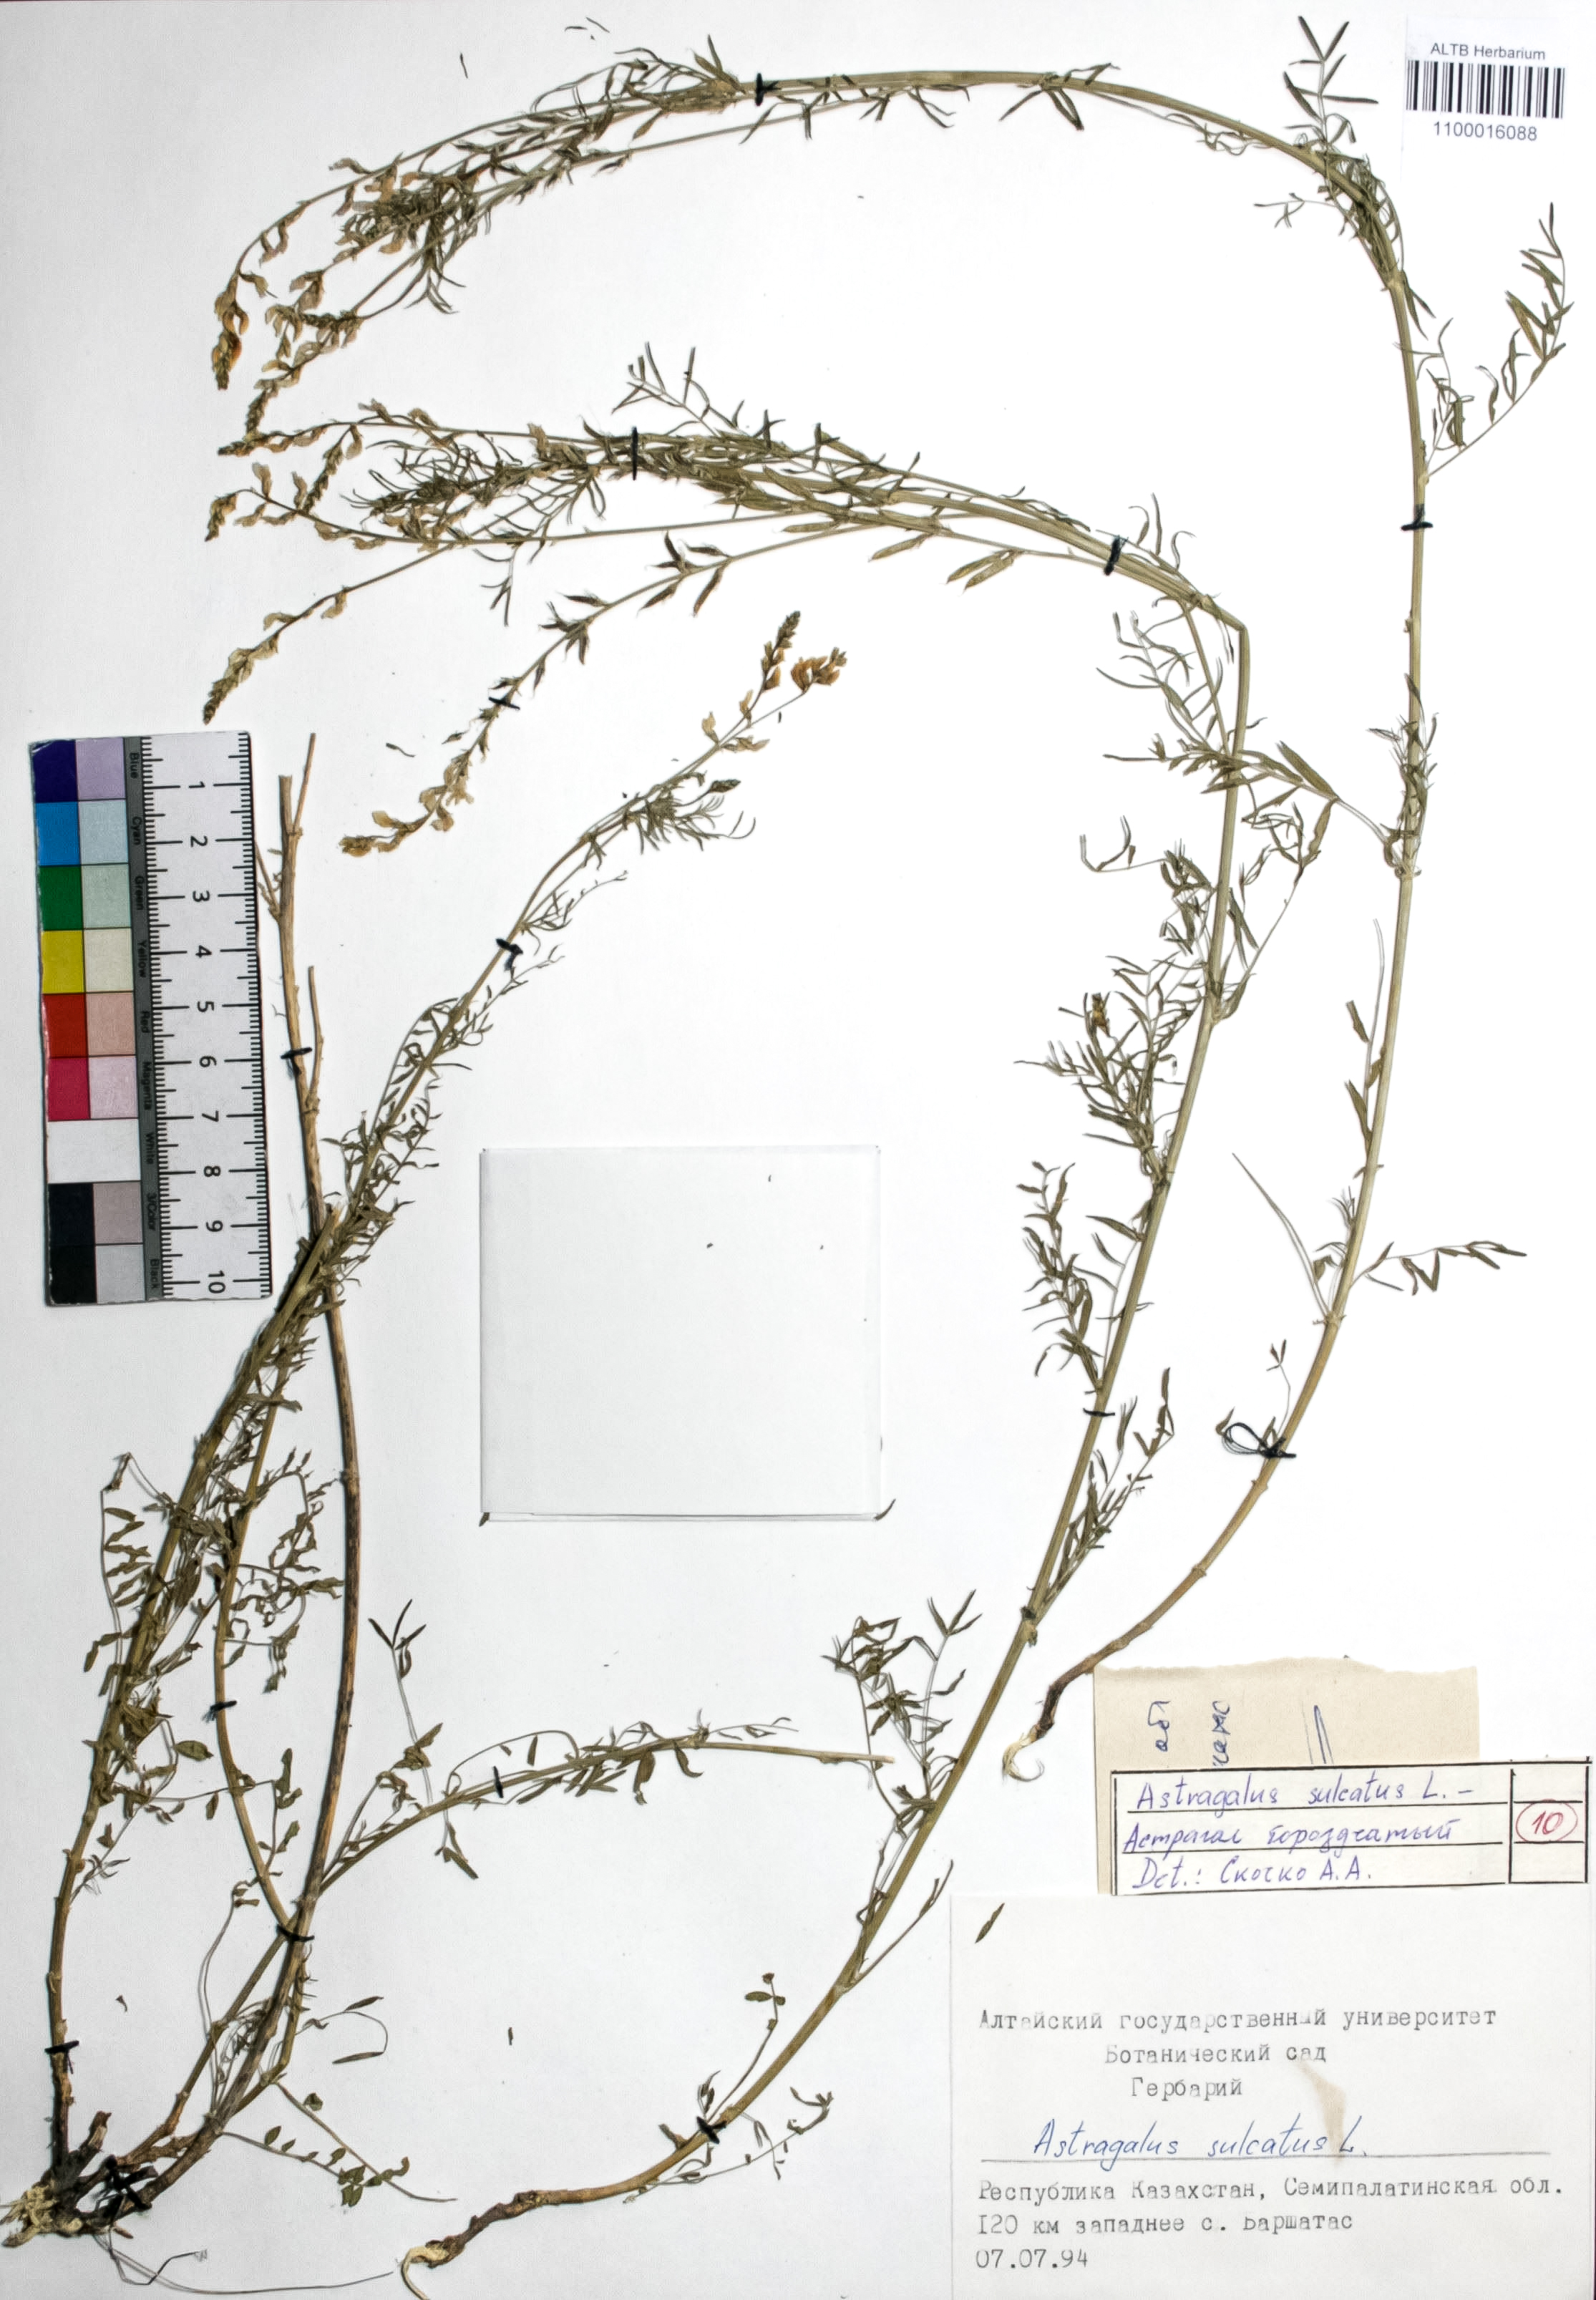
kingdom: Plantae
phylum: Tracheophyta
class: Magnoliopsida
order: Fabales
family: Fabaceae
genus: Astragalus
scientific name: Astragalus sulcatus
